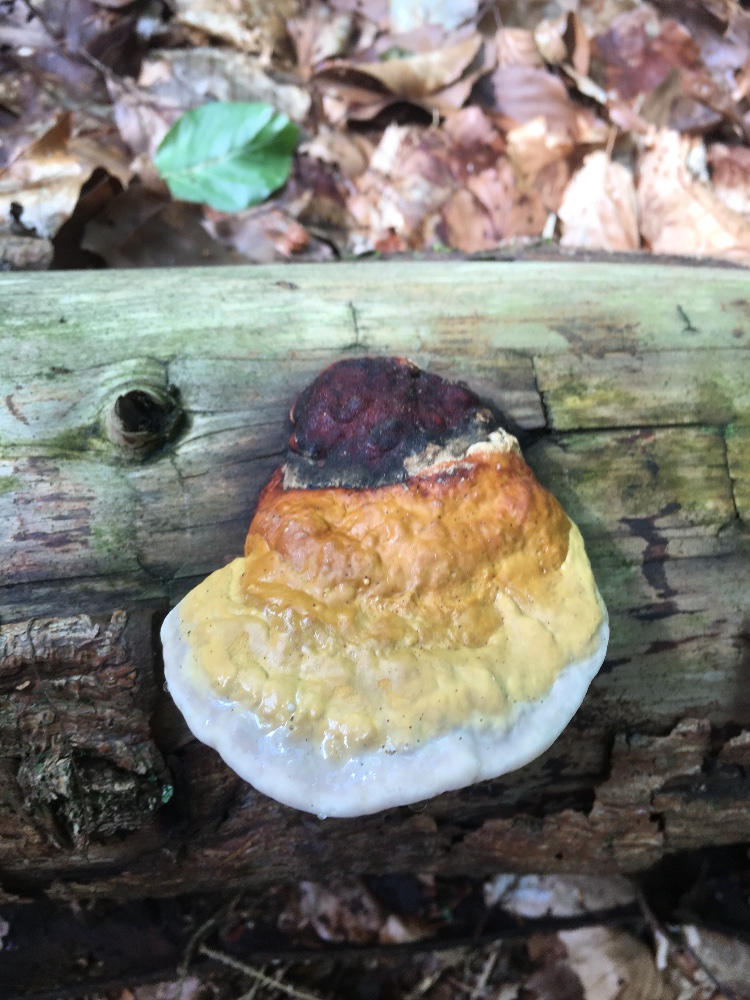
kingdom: Fungi
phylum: Basidiomycota
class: Agaricomycetes
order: Polyporales
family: Fomitopsidaceae
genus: Fomitopsis
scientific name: Fomitopsis pinicola
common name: randbæltet hovporesvamp
